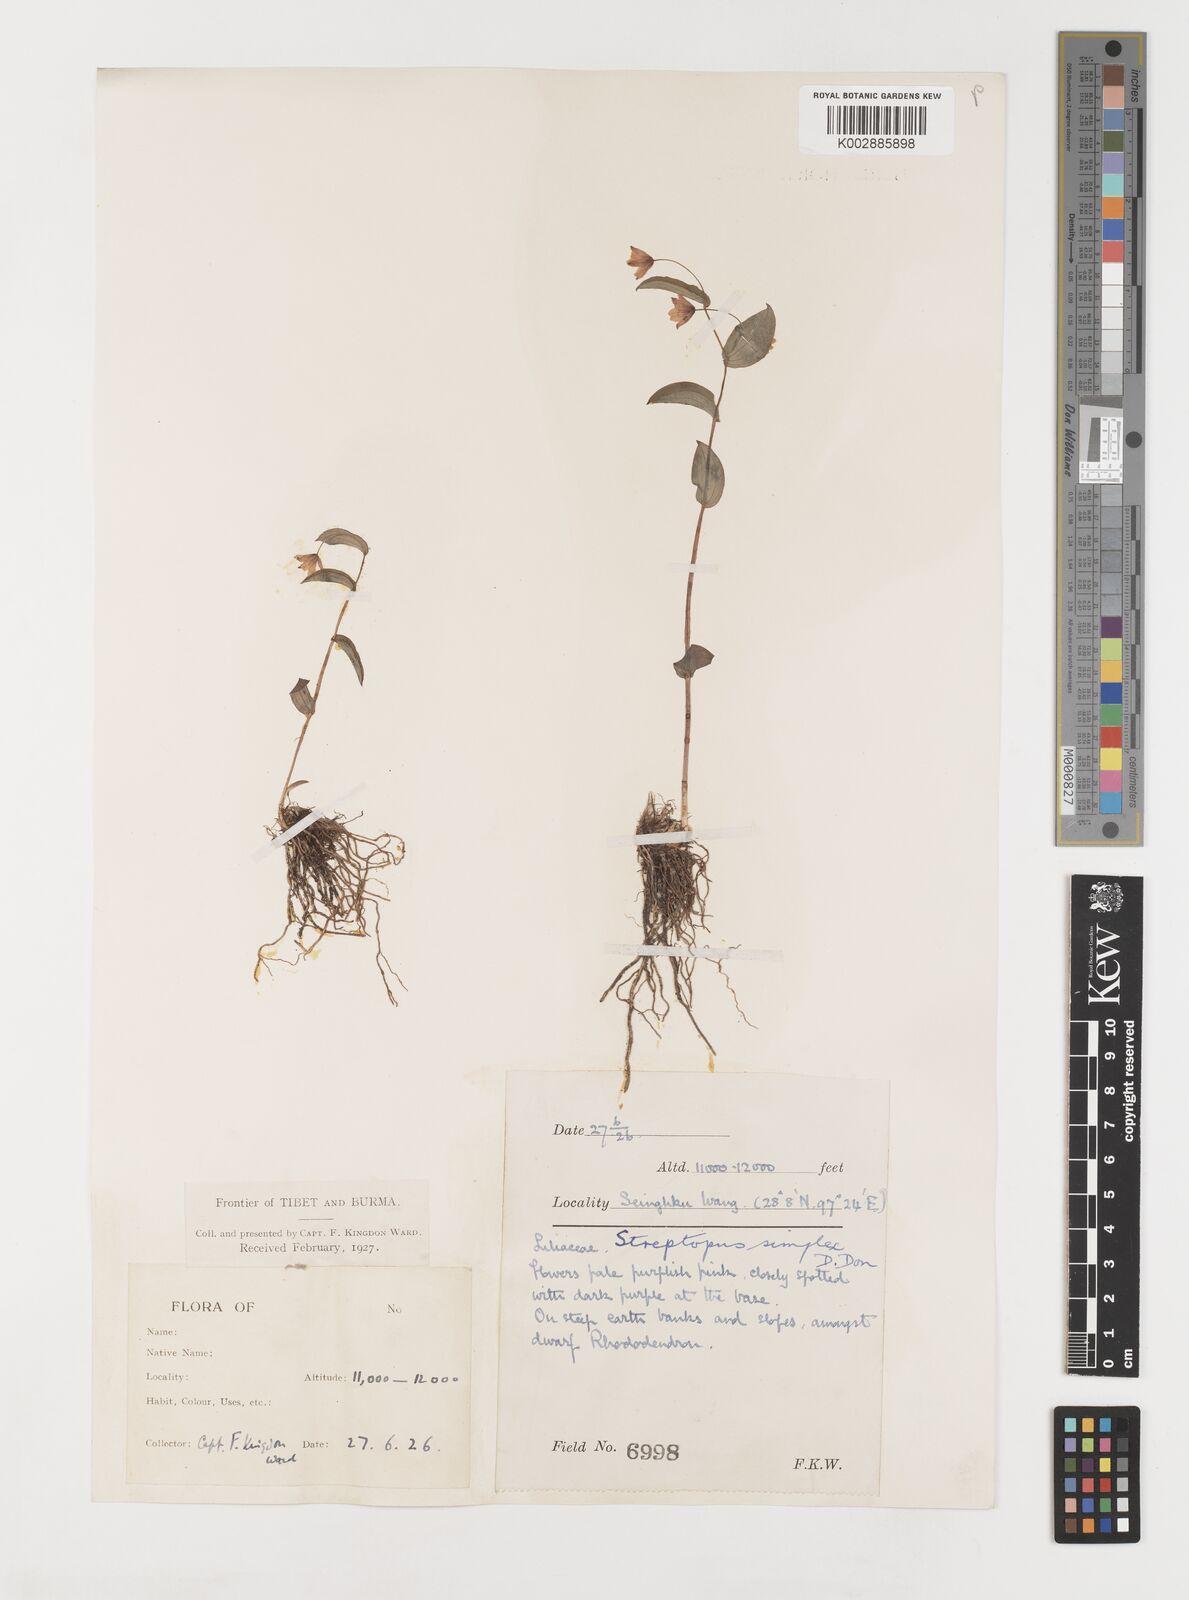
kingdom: Plantae
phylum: Tracheophyta
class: Liliopsida
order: Liliales
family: Liliaceae
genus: Streptopus
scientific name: Streptopus simplex
